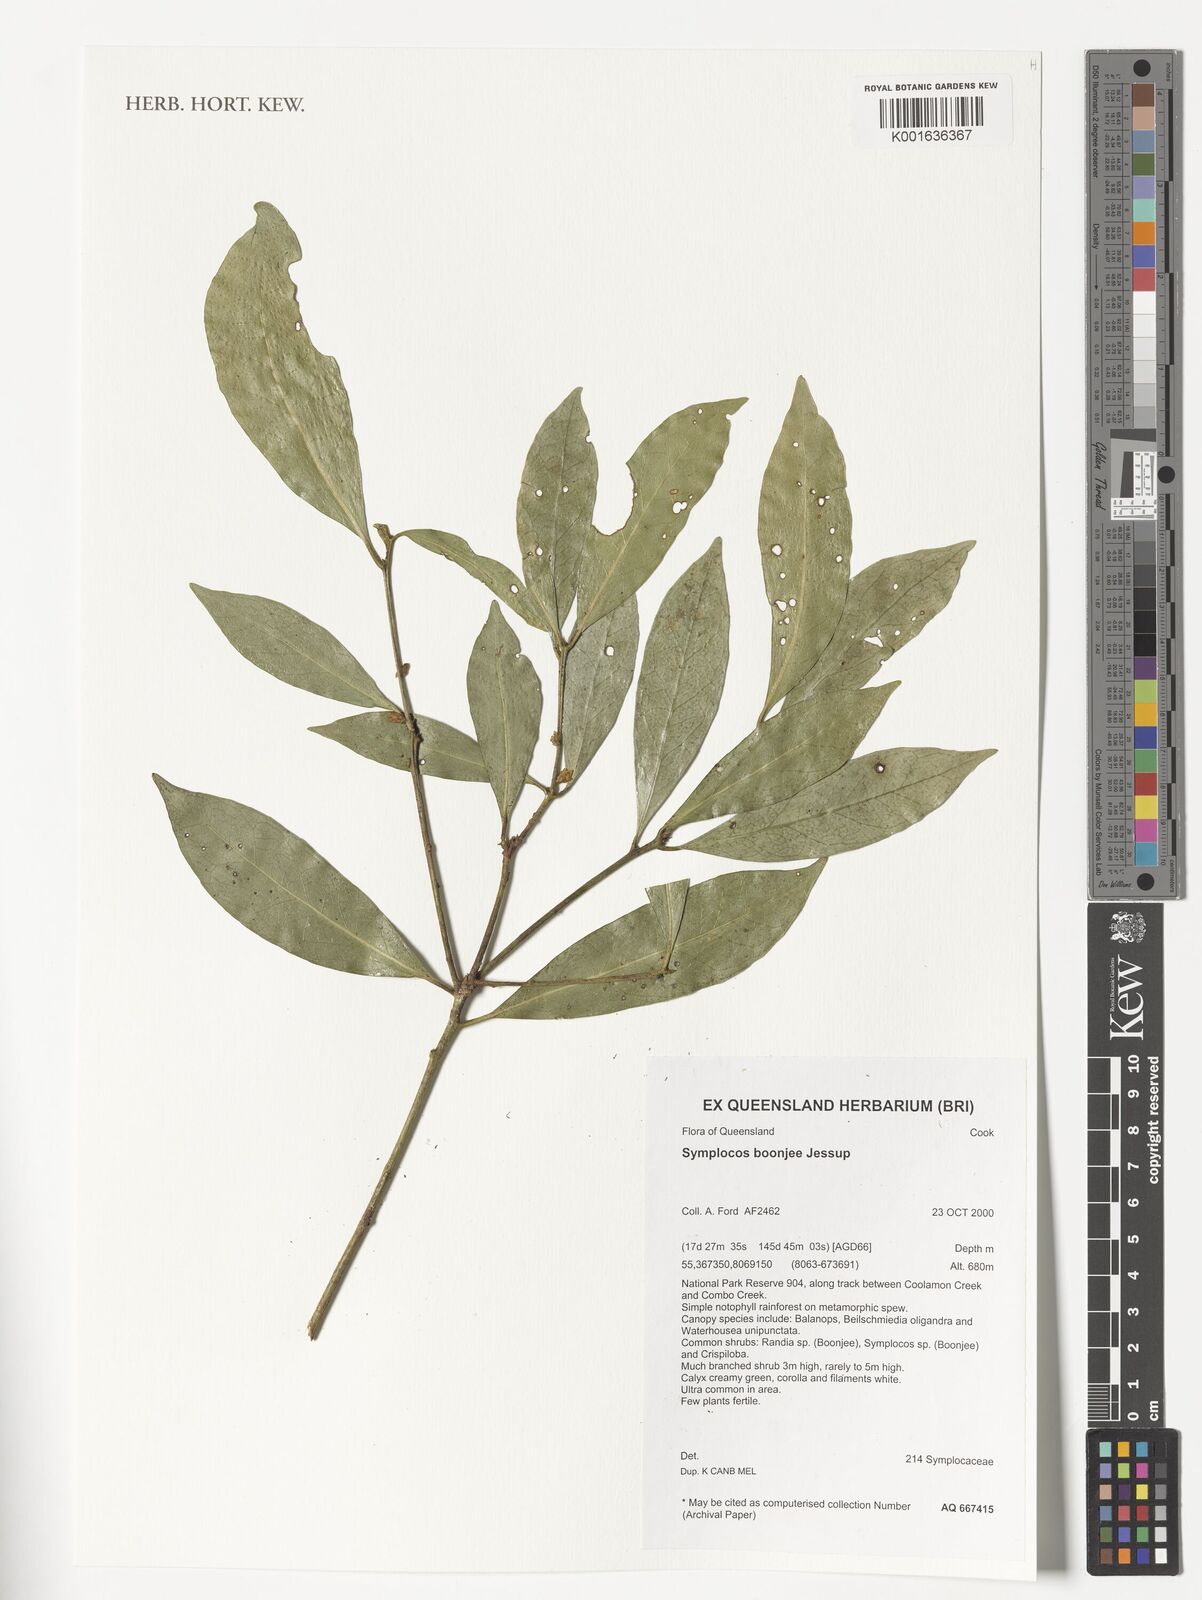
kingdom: Plantae
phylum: Tracheophyta
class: Magnoliopsida
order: Ericales
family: Symplocaceae
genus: Symplocos
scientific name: Symplocos boonjee
